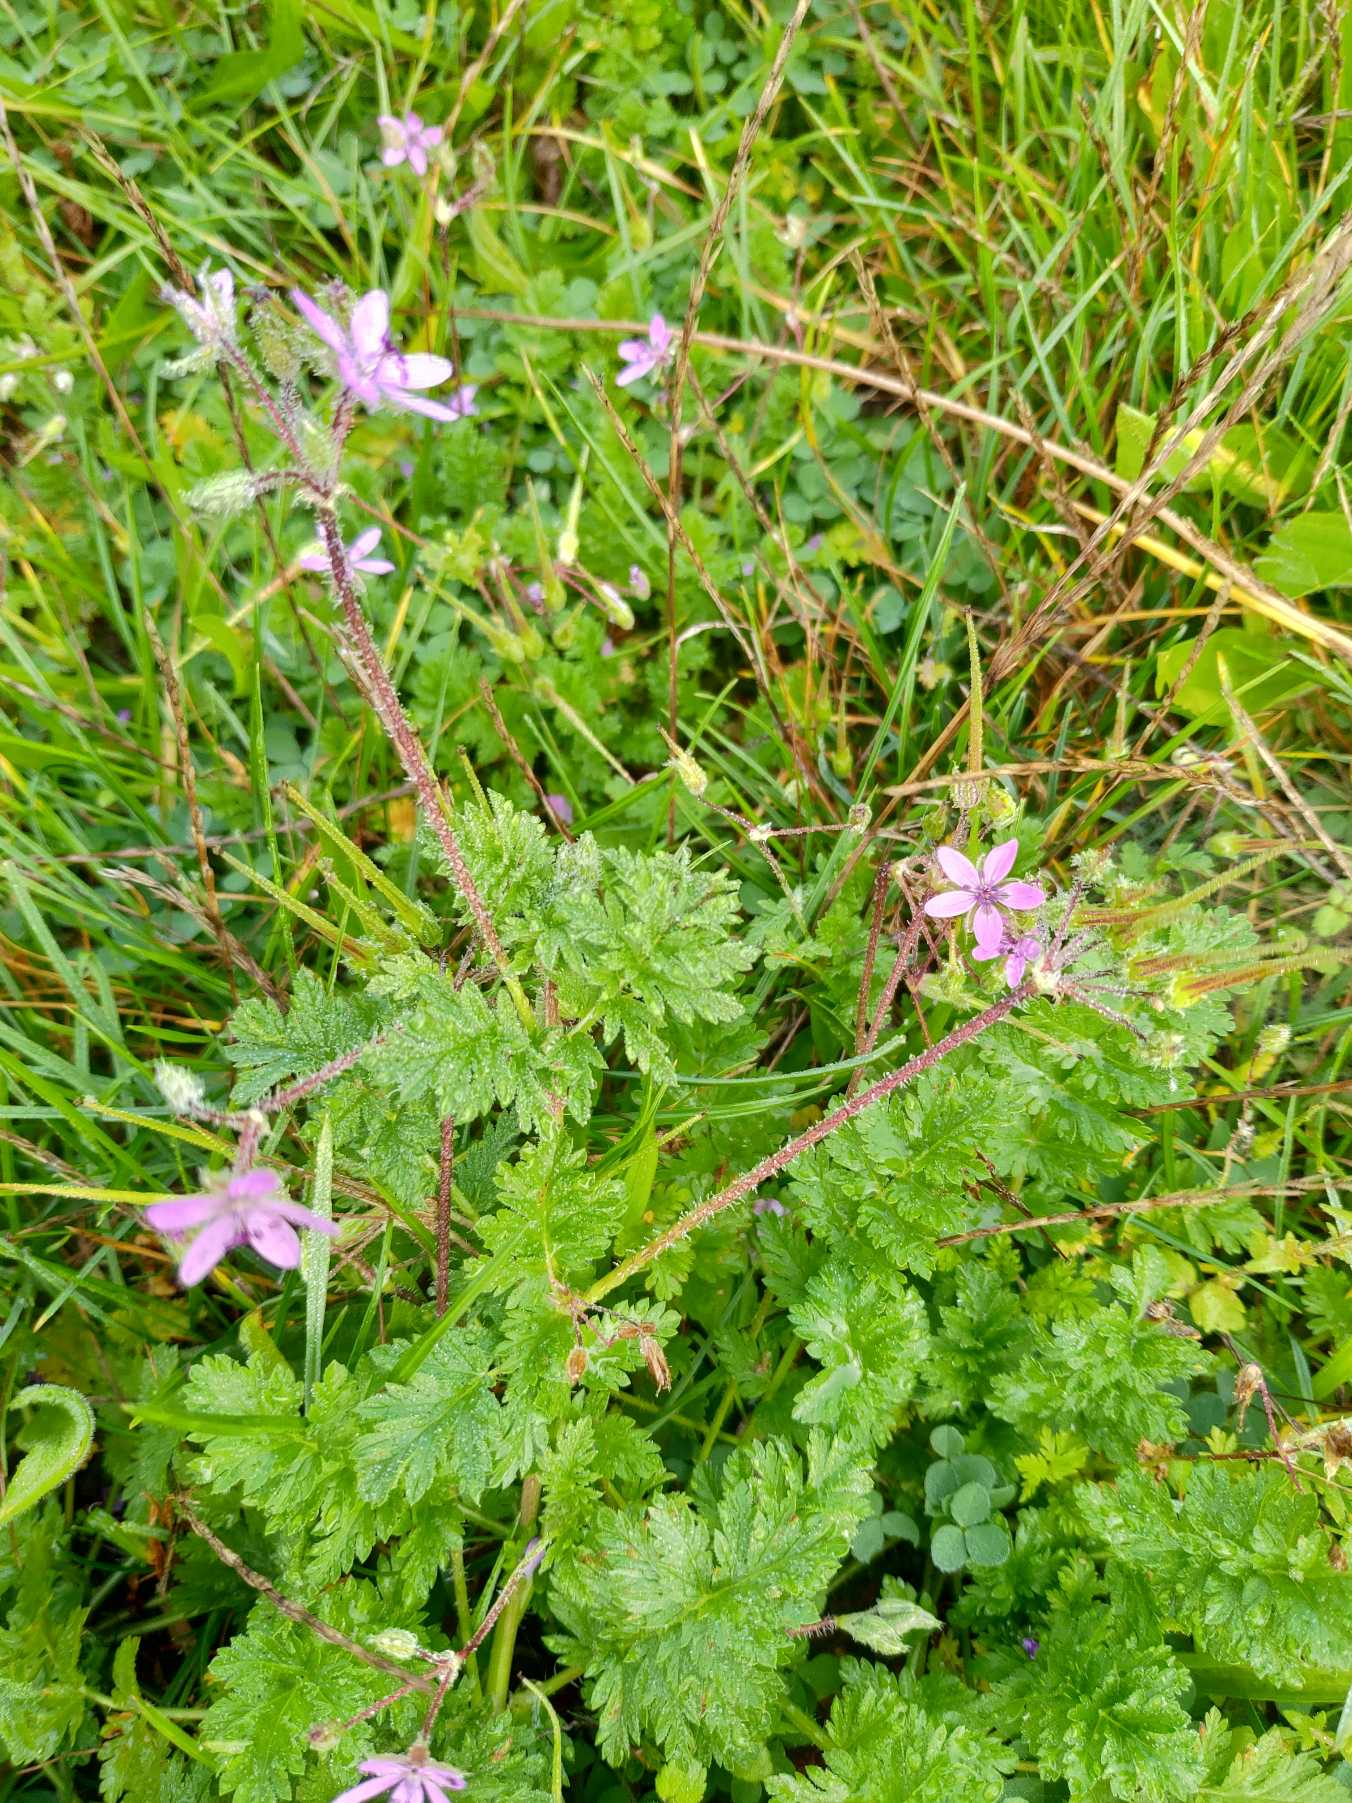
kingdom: Plantae
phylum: Tracheophyta
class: Magnoliopsida
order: Geraniales
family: Geraniaceae
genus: Erodium
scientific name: Erodium cicutarium
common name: Hejrenæb
